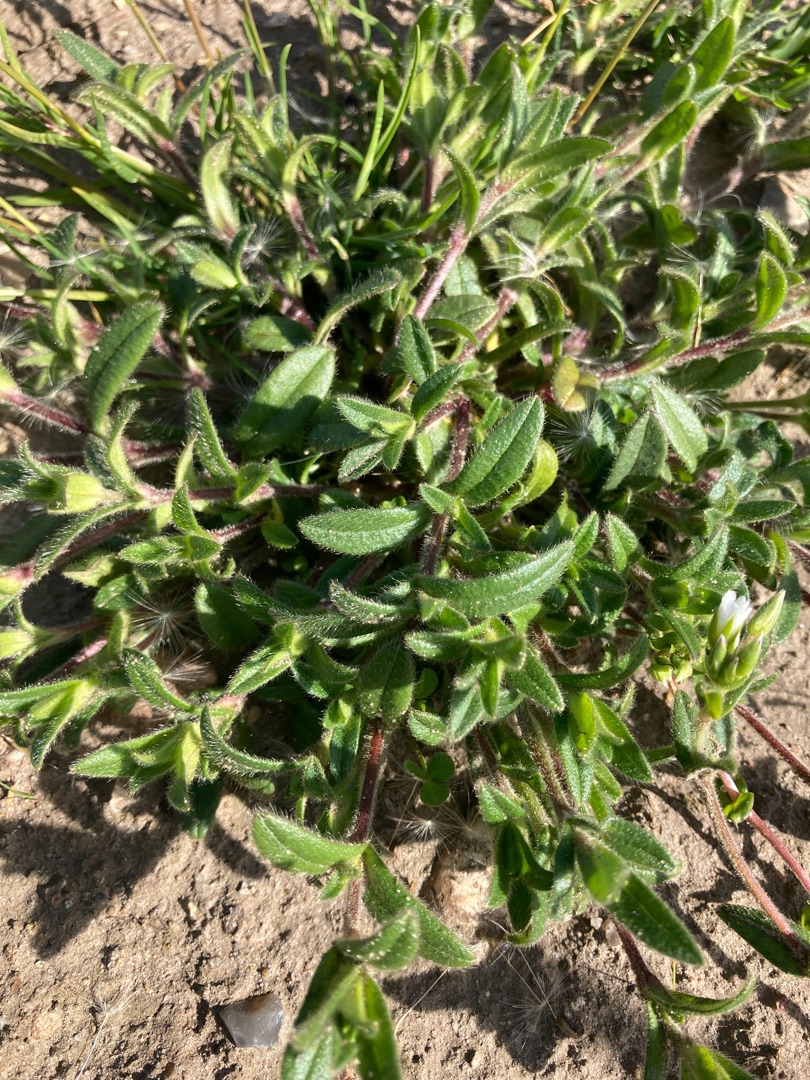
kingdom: Plantae
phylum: Tracheophyta
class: Magnoliopsida
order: Caryophyllales
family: Caryophyllaceae
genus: Cerastium
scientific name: Cerastium fontanum
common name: Almindelig hønsetarm
